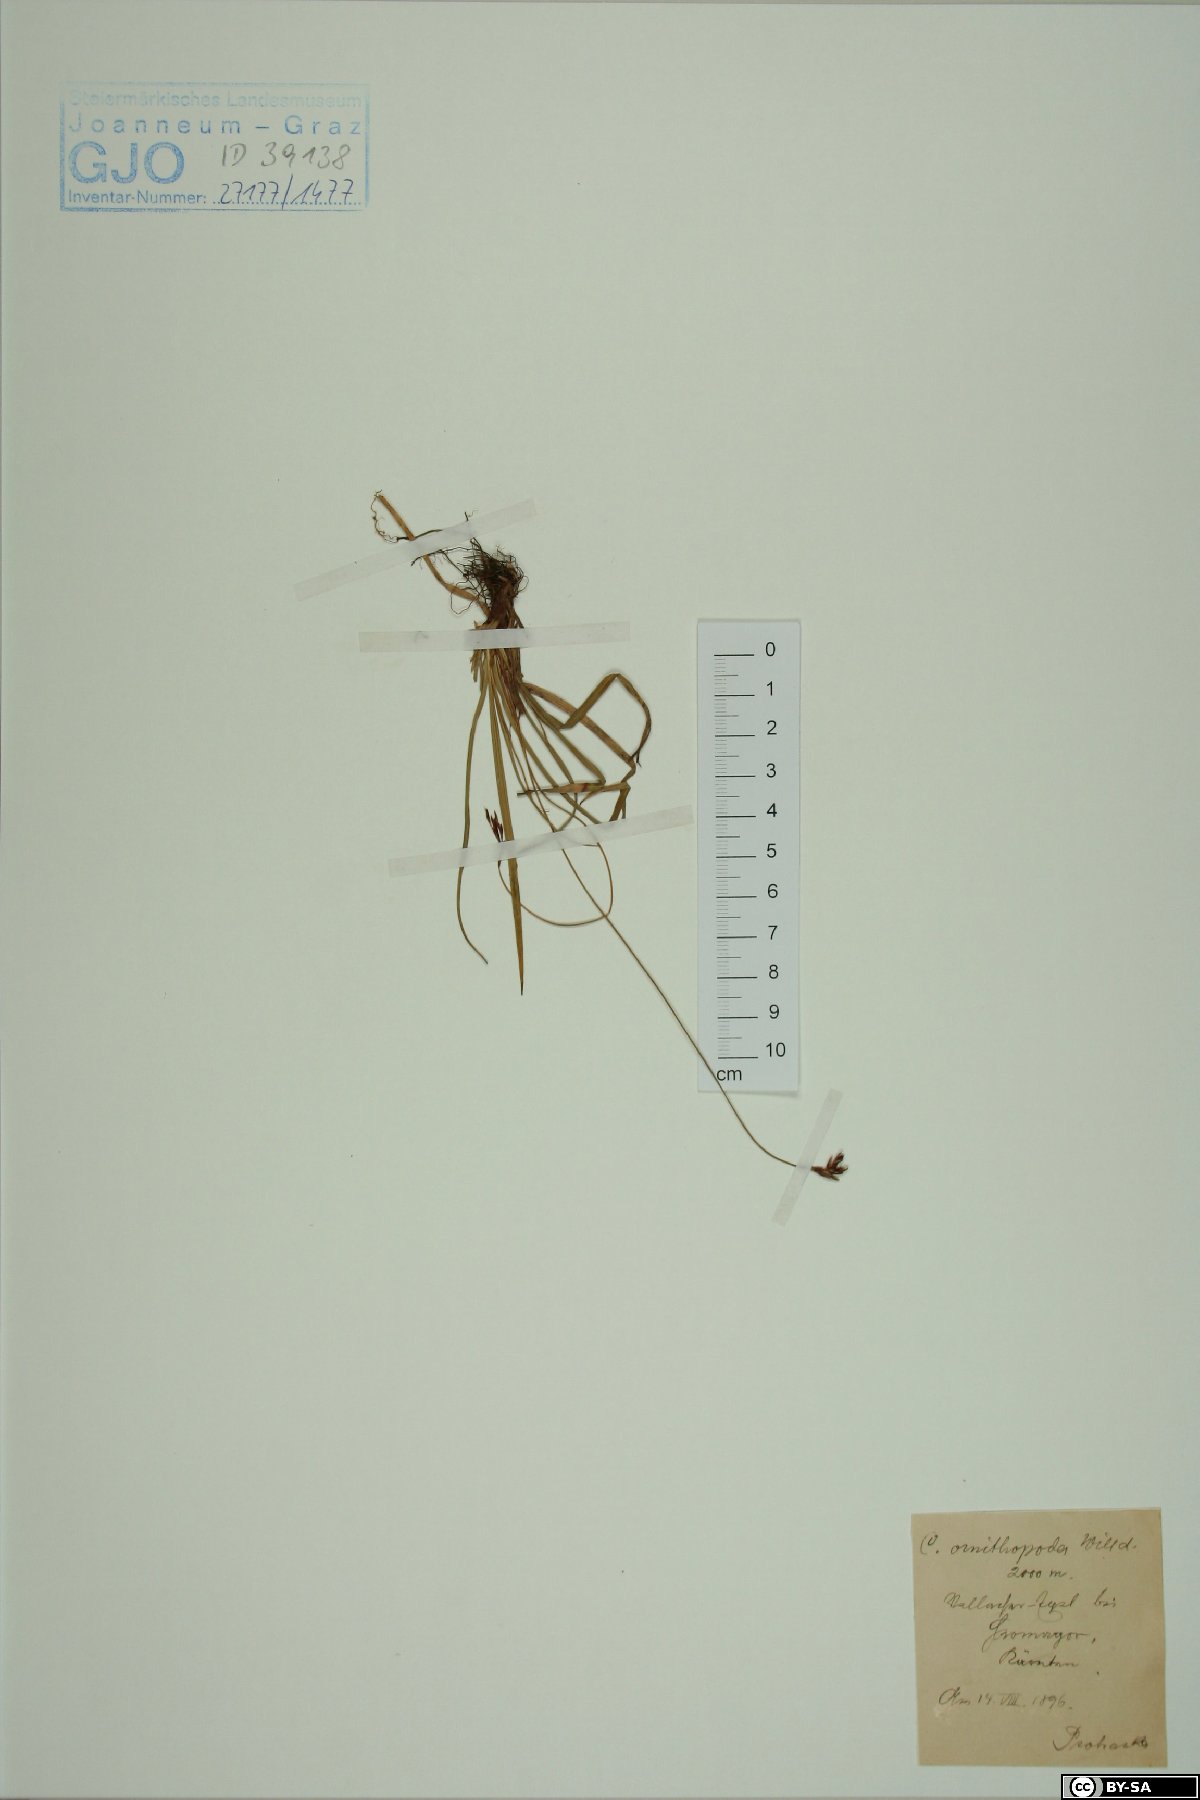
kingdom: Plantae
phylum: Tracheophyta
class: Liliopsida
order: Poales
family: Cyperaceae
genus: Carex
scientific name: Carex ornithopoda
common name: Bird's-foot sedge
